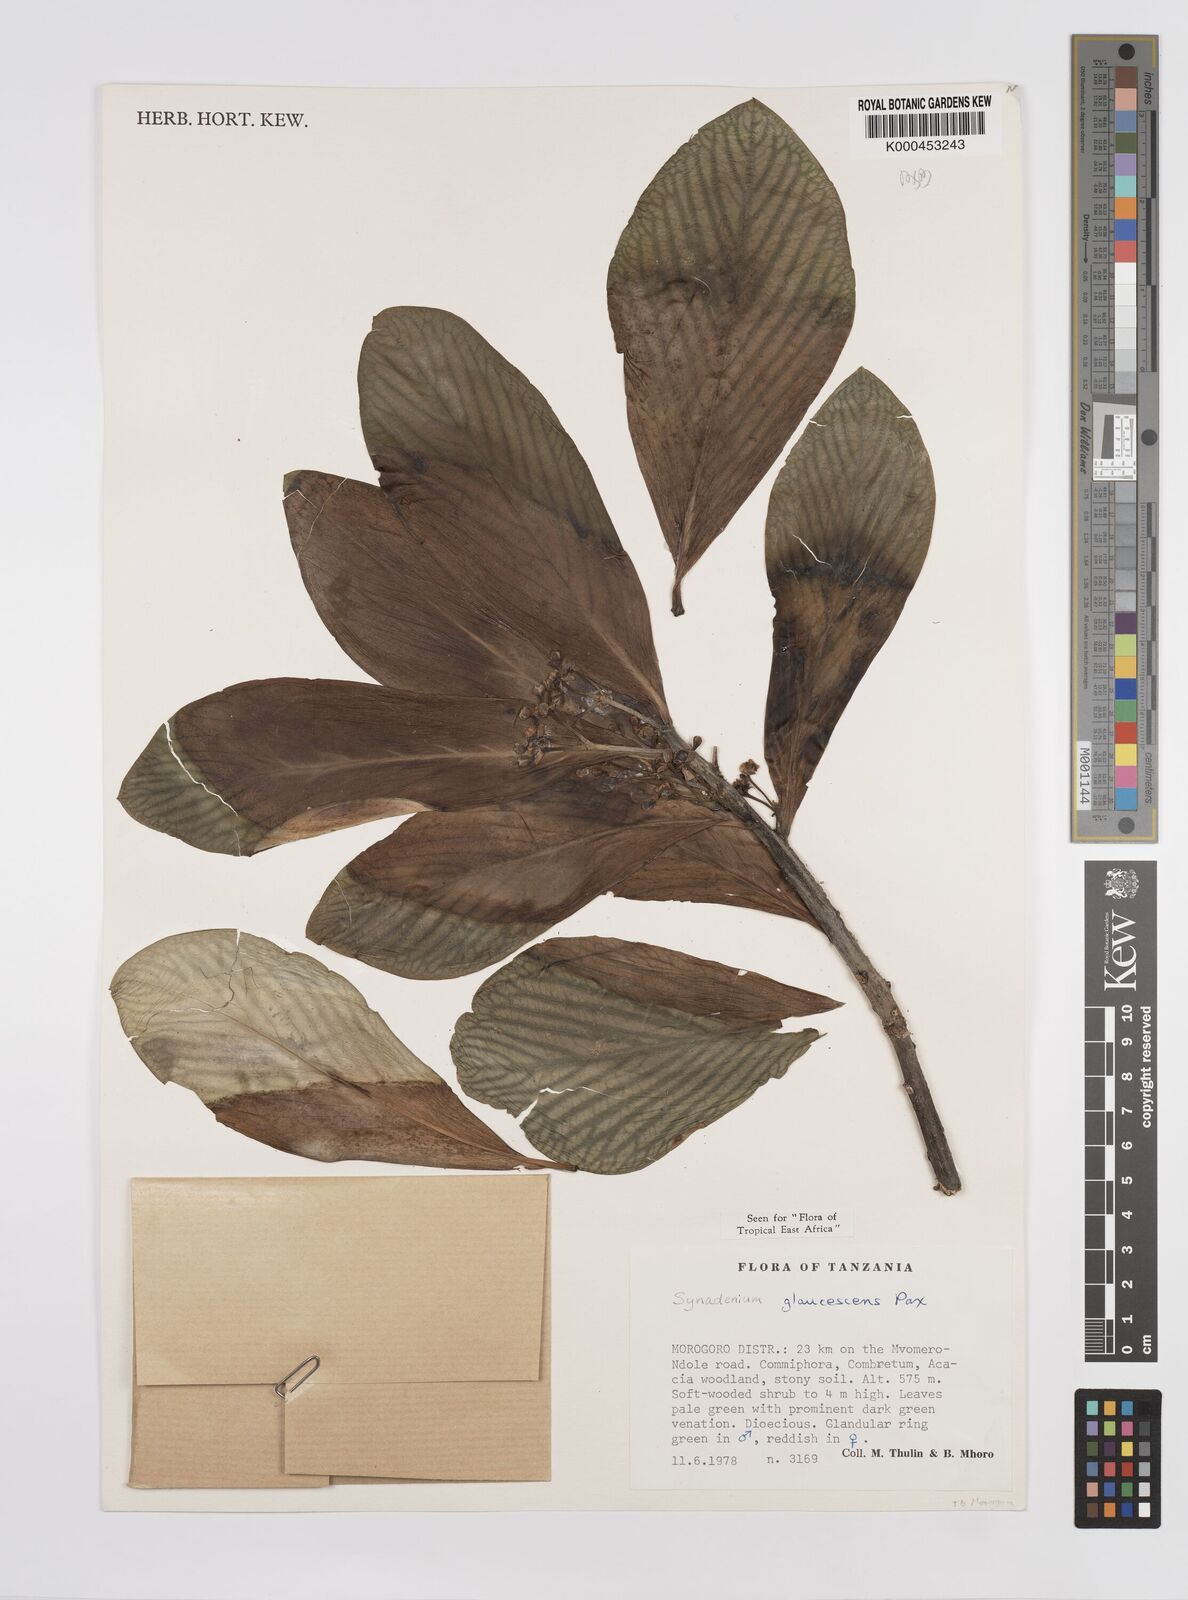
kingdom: Plantae
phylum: Tracheophyta
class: Magnoliopsida
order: Malpighiales
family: Euphorbiaceae
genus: Euphorbia
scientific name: Euphorbia neoglaucescens
